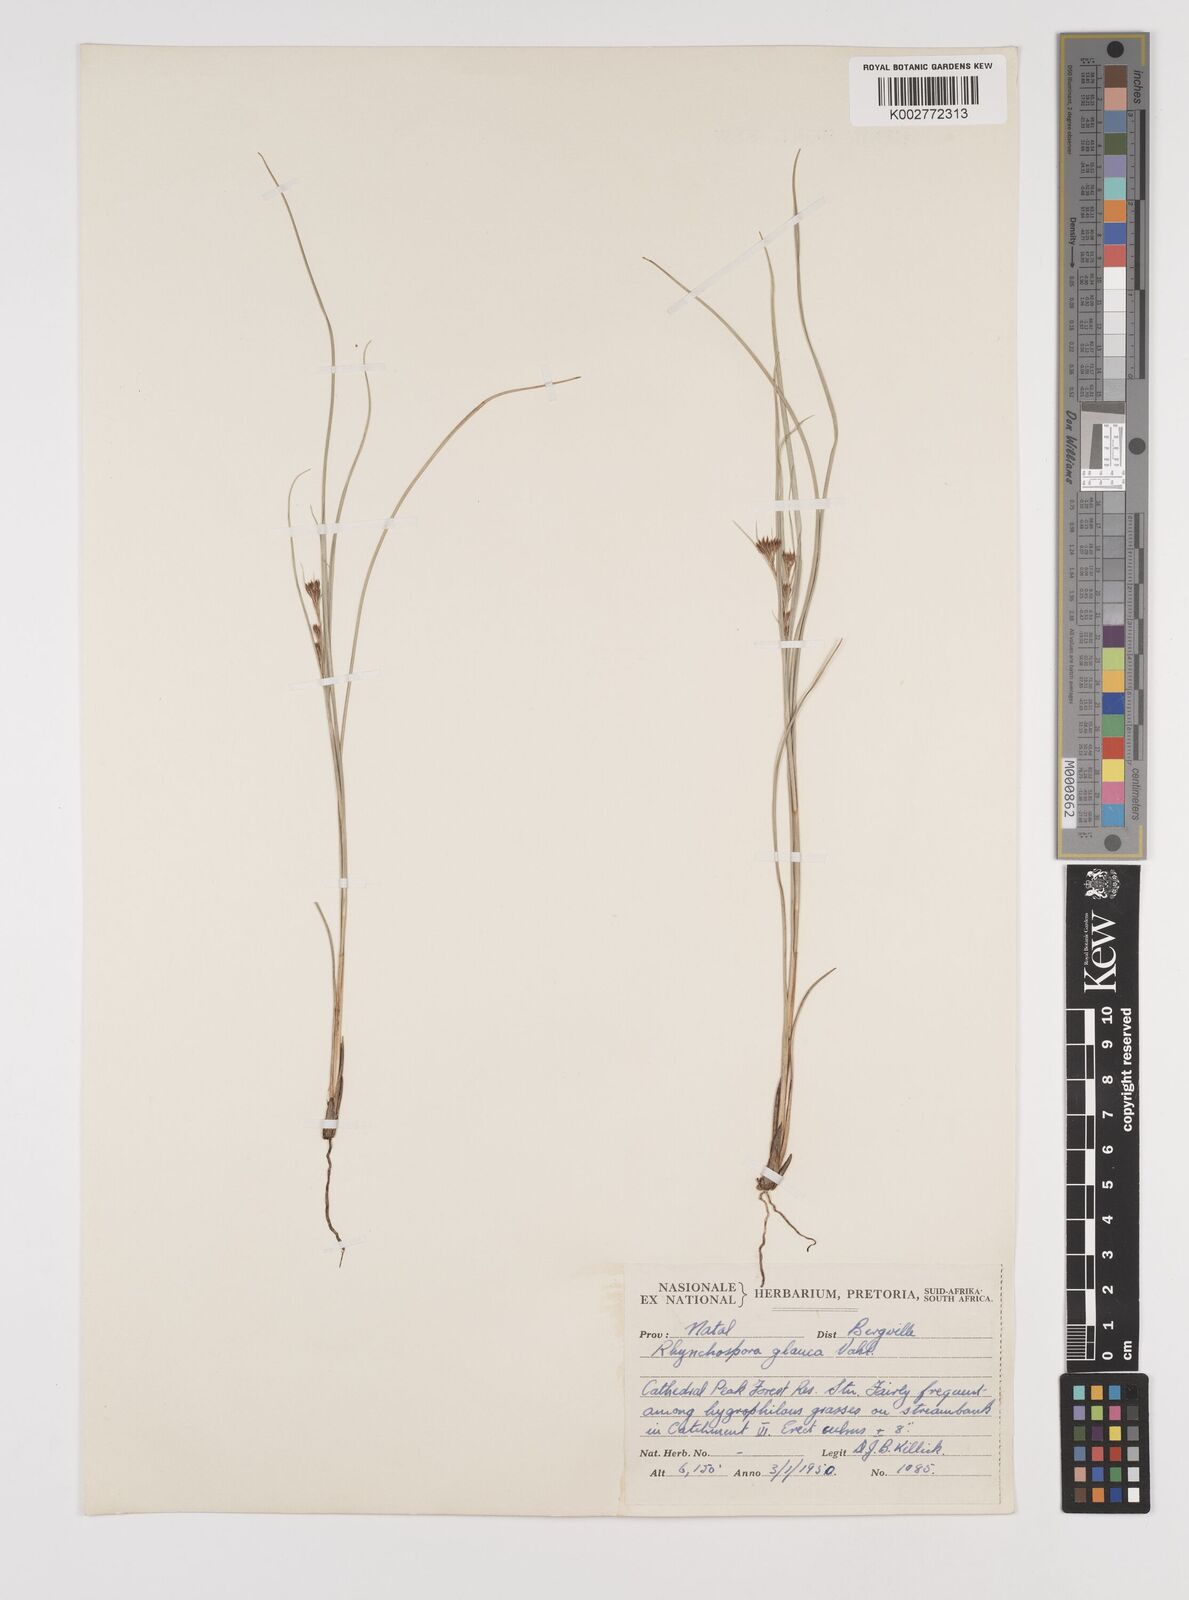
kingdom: Plantae
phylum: Tracheophyta
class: Liliopsida
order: Poales
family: Cyperaceae
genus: Rhynchospora
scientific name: Rhynchospora rugosa
